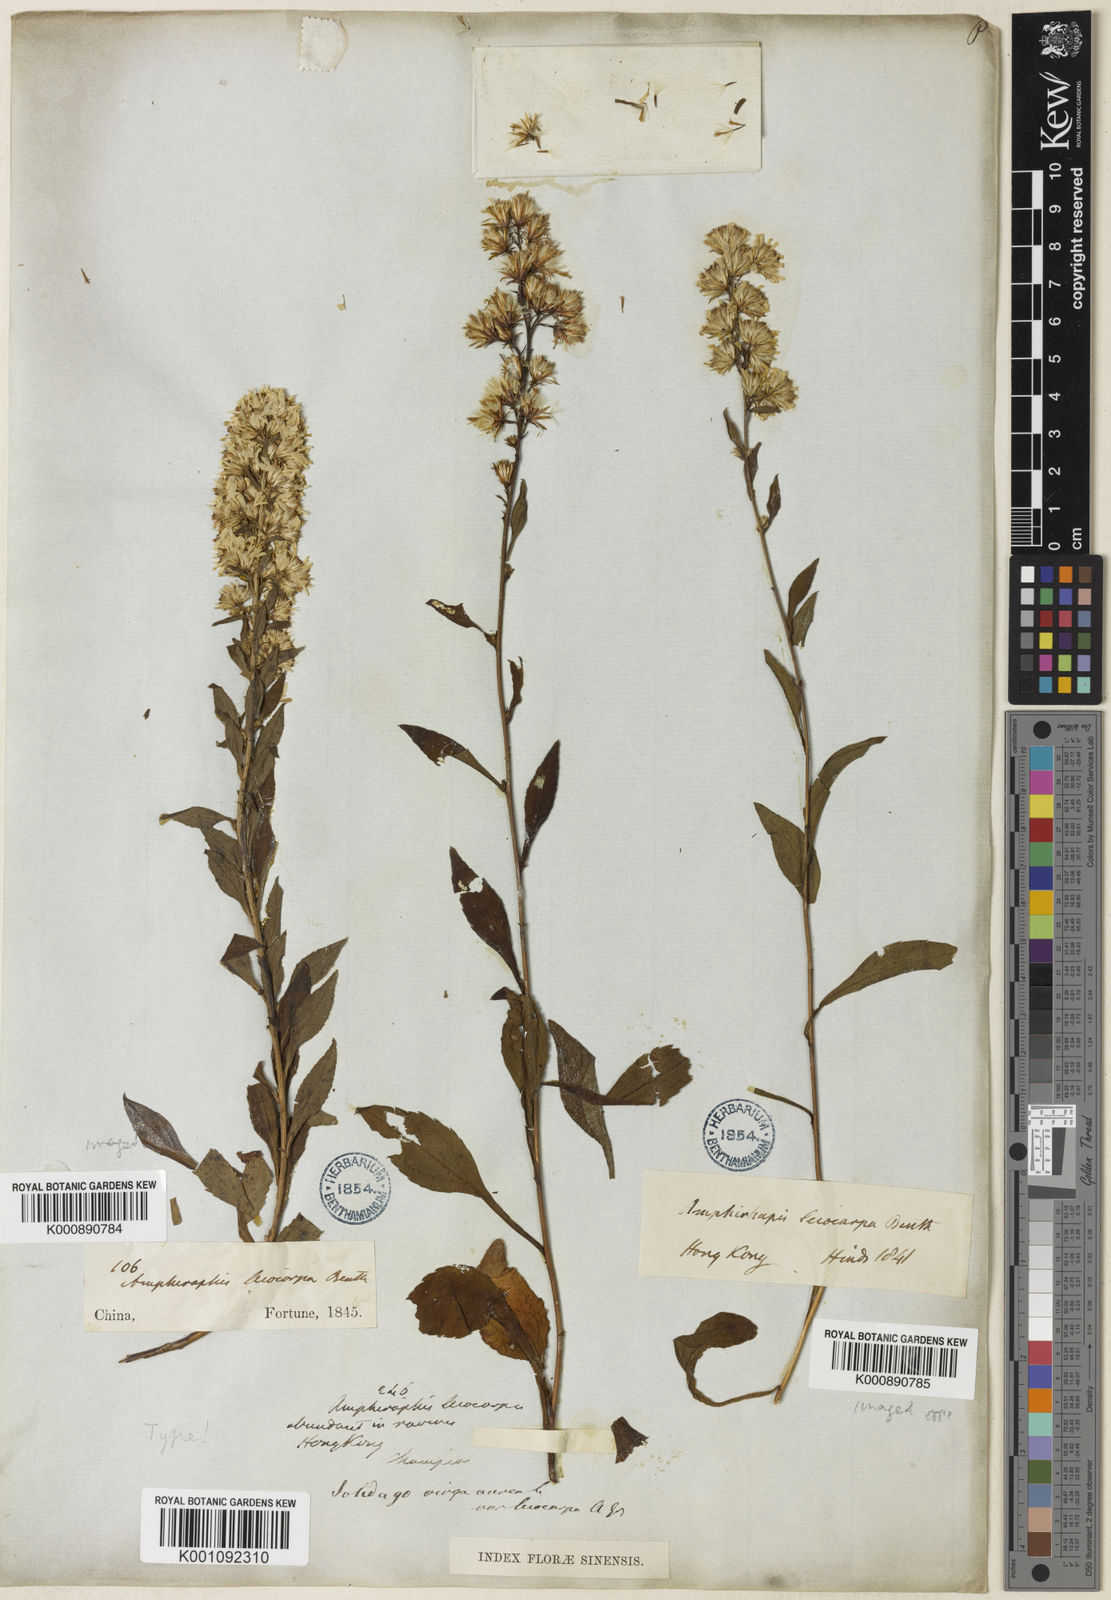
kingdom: Plantae
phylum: Tracheophyta
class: Magnoliopsida
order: Asterales
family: Asteraceae
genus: Solidago
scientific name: Solidago decurrens
